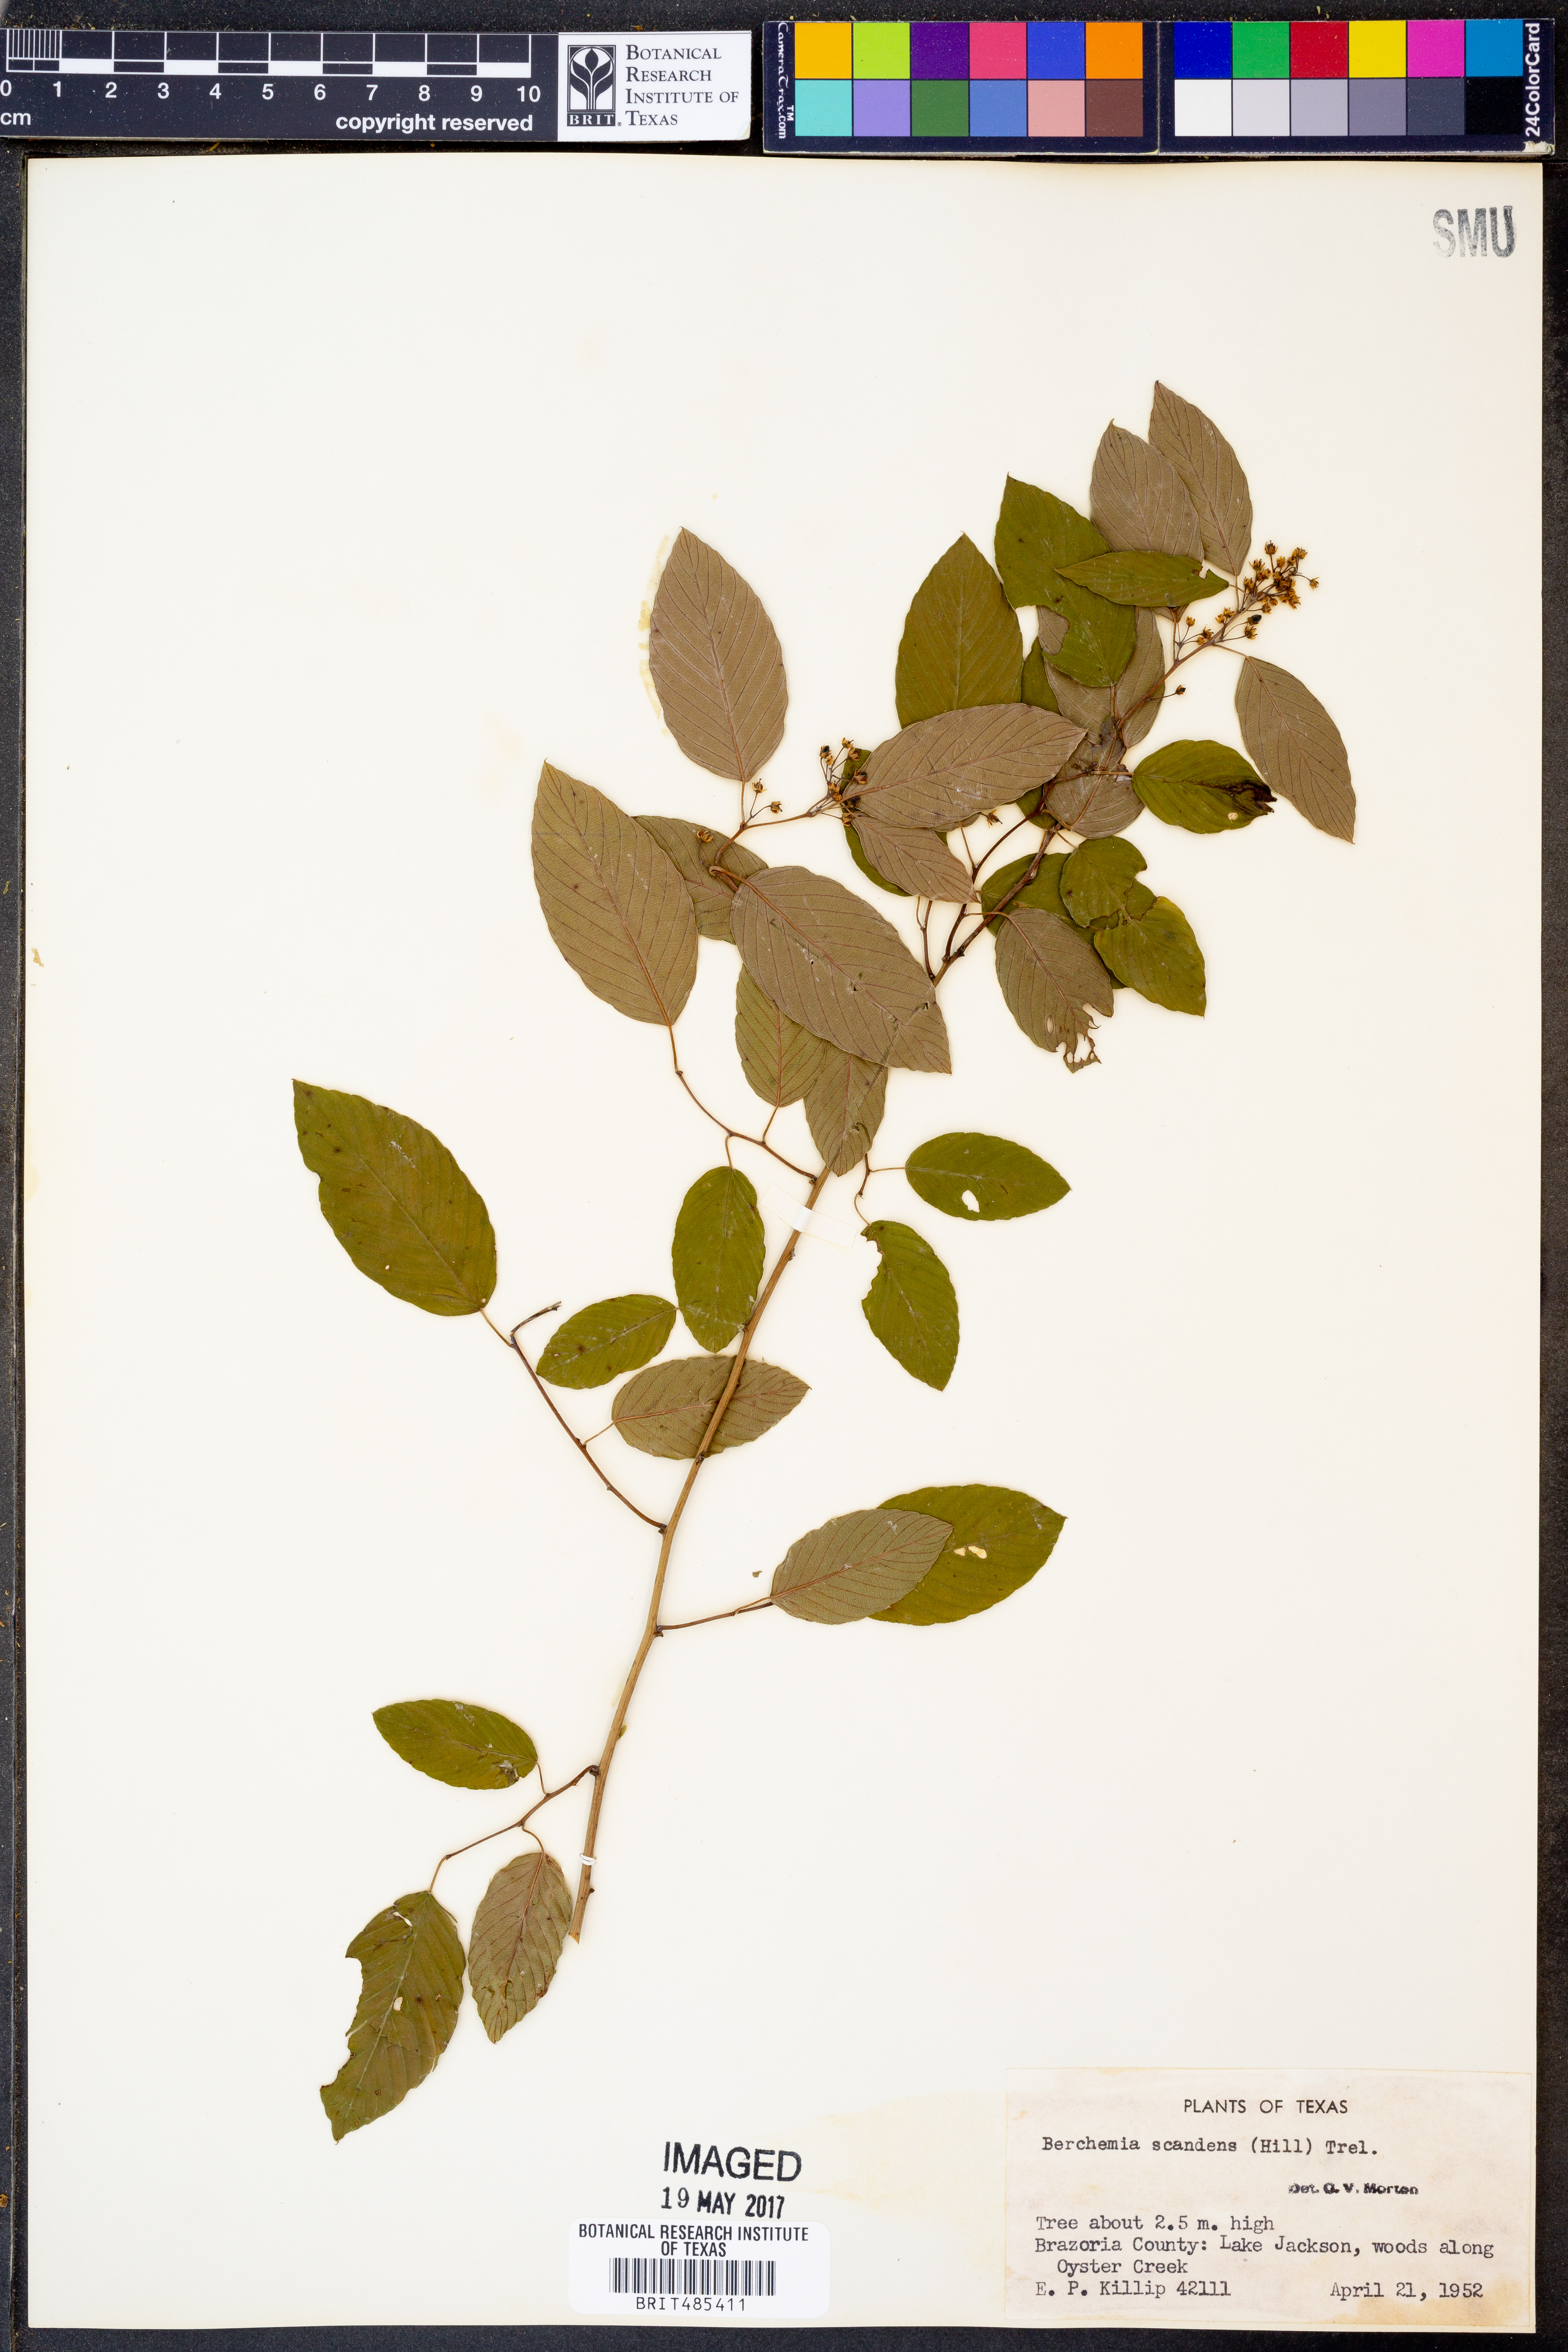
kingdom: Plantae
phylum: Tracheophyta
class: Magnoliopsida
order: Rosales
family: Rhamnaceae
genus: Berchemia
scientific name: Berchemia scandens
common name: Supplejack
